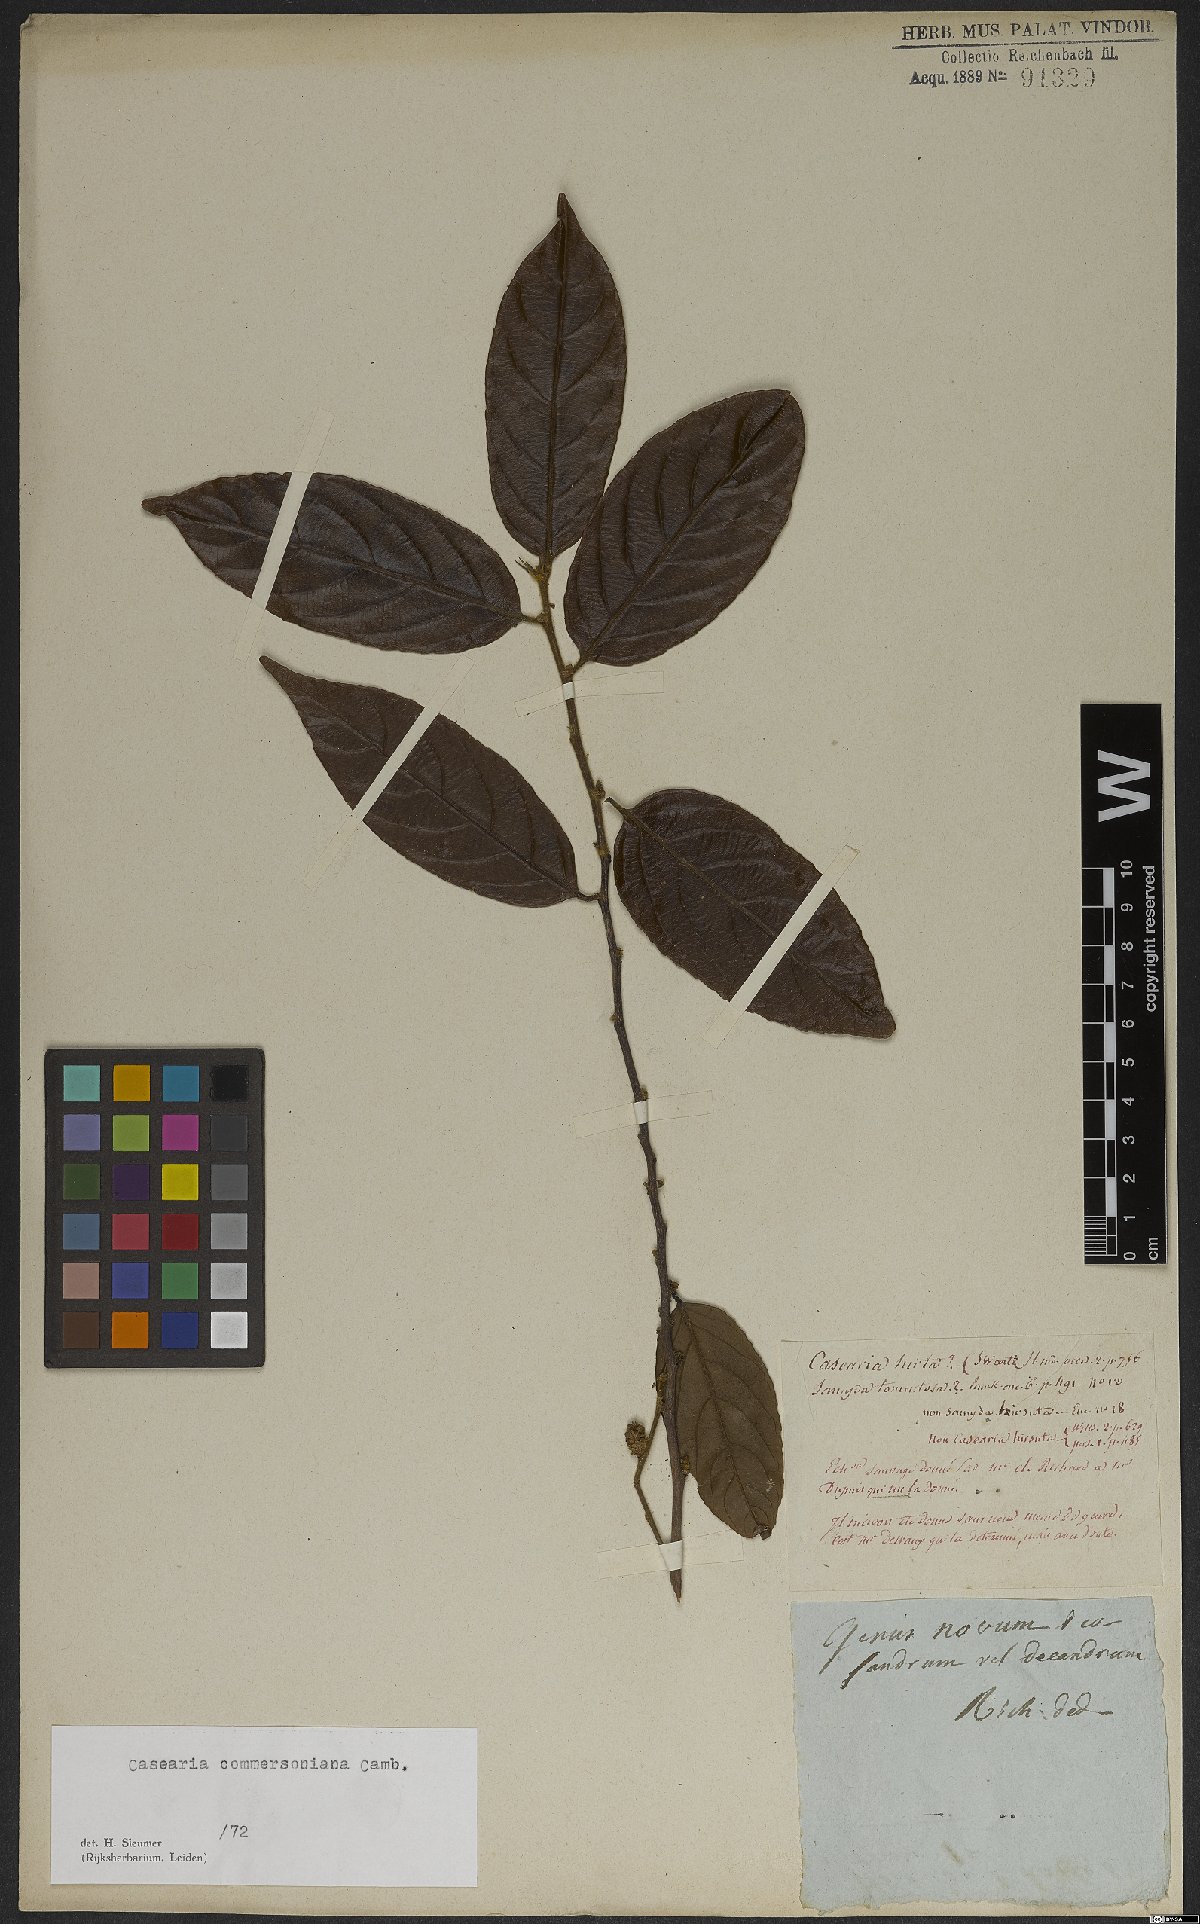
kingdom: Plantae
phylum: Tracheophyta
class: Magnoliopsida
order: Malpighiales
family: Salicaceae
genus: Piparea
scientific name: Piparea dentata
